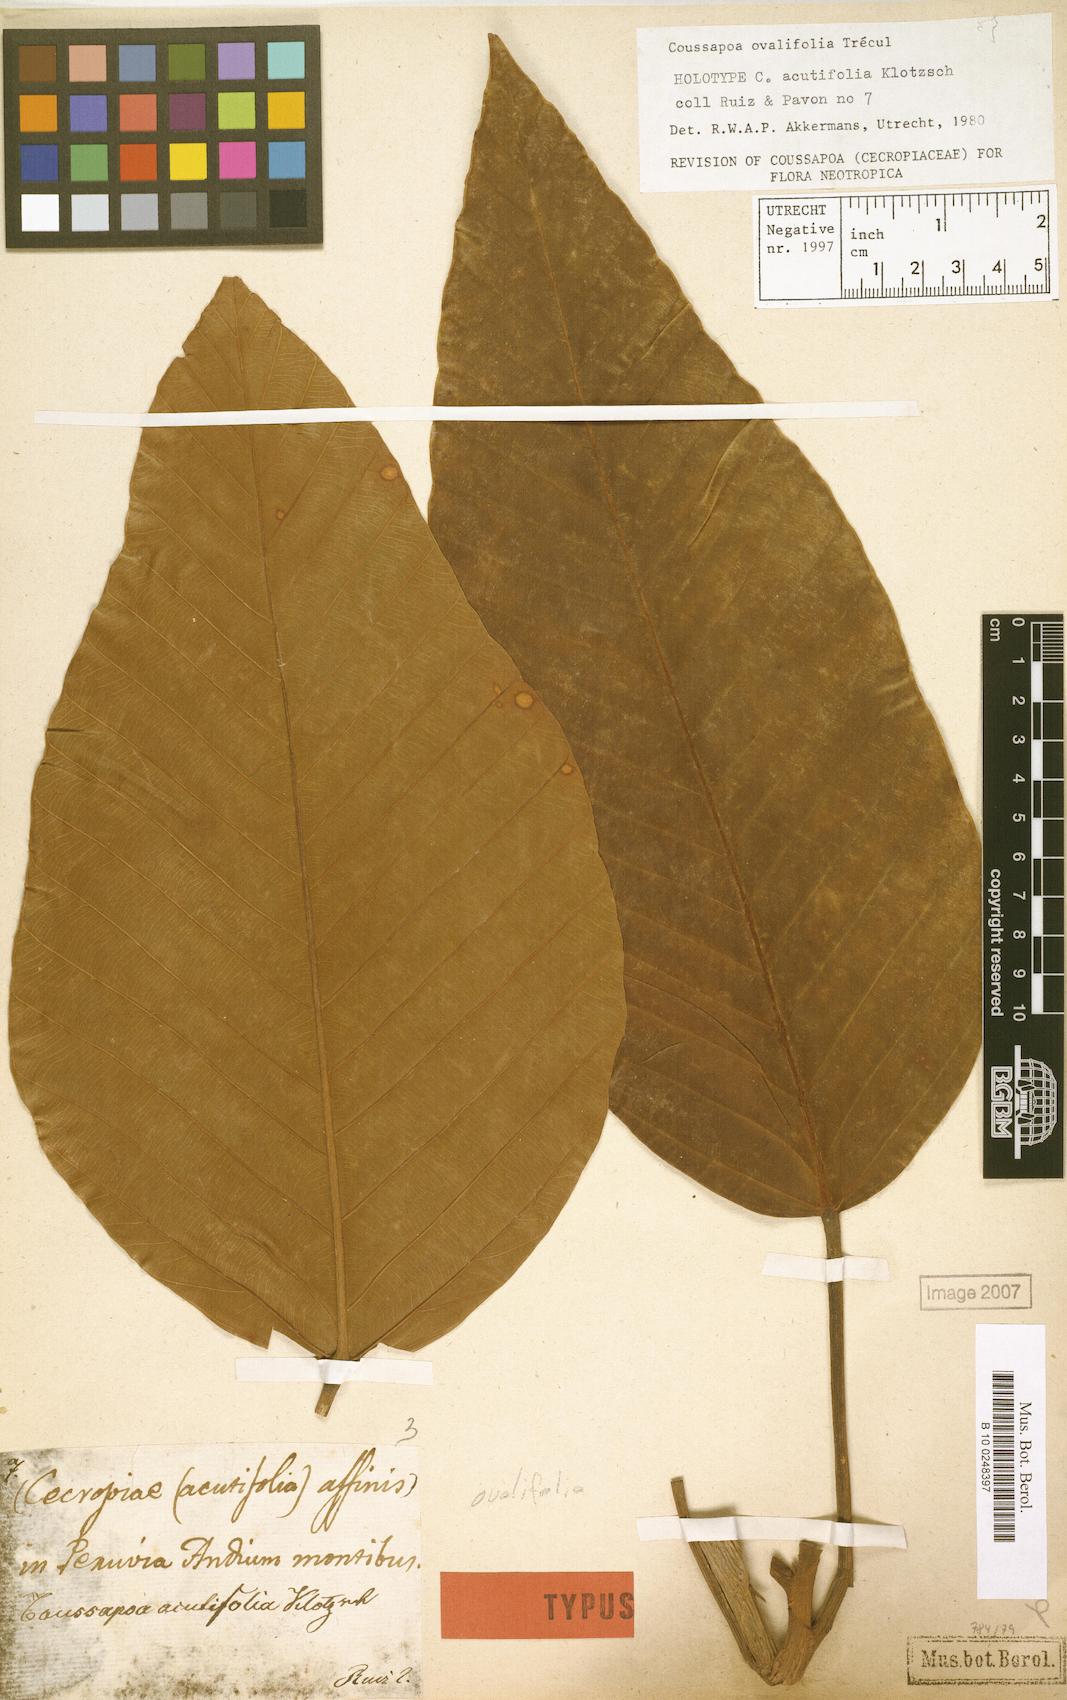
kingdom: Plantae
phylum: Tracheophyta
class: Magnoliopsida
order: Rosales
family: Urticaceae
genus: Coussapoa
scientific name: Coussapoa ovalifolia
